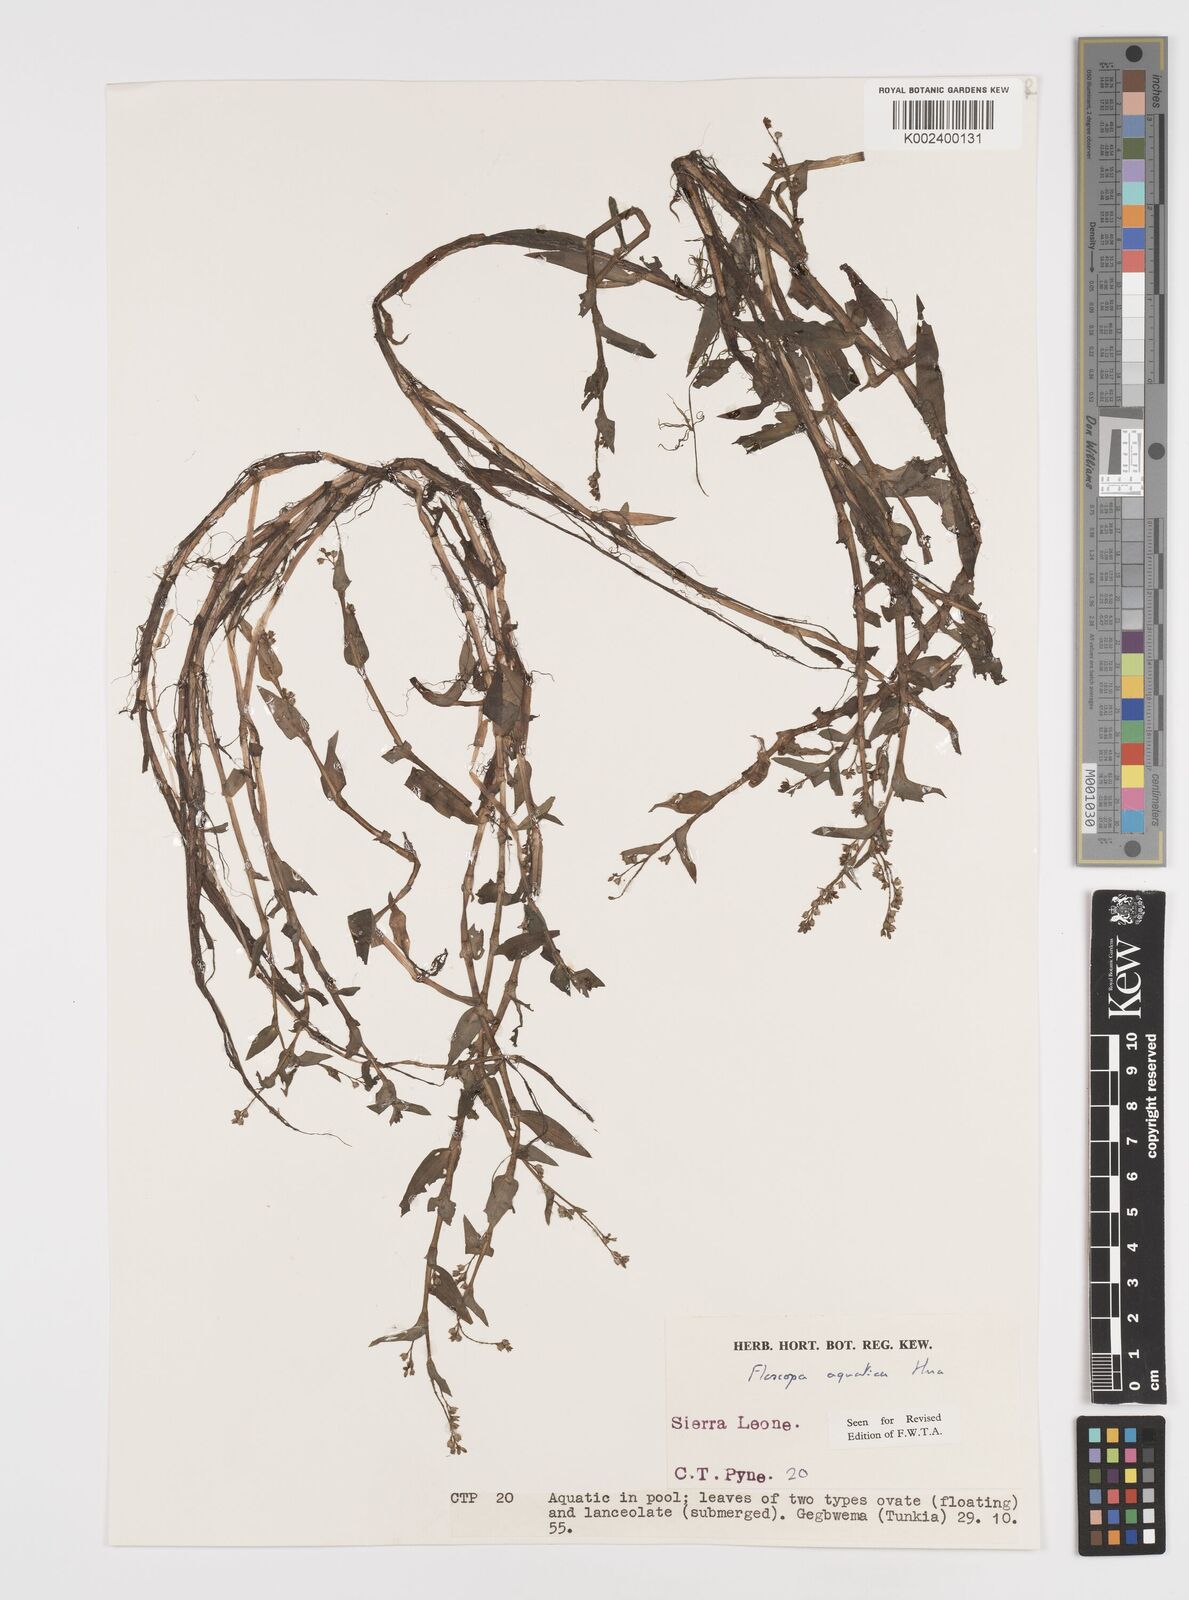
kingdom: Plantae
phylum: Tracheophyta
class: Liliopsida
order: Commelinales
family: Commelinaceae
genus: Floscopa
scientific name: Floscopa aquatica
